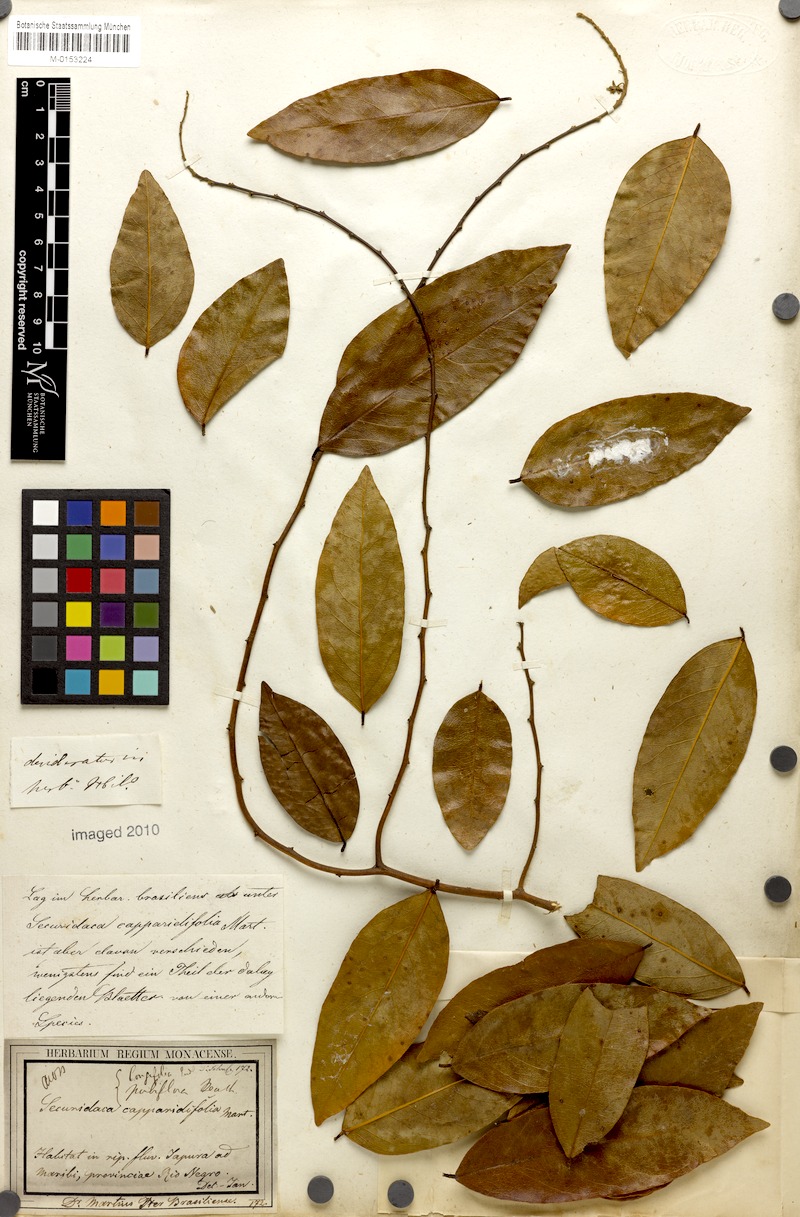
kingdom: Plantae
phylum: Tracheophyta
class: Magnoliopsida
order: Fabales
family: Polygalaceae
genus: Securidaca
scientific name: Securidaca longifolia
